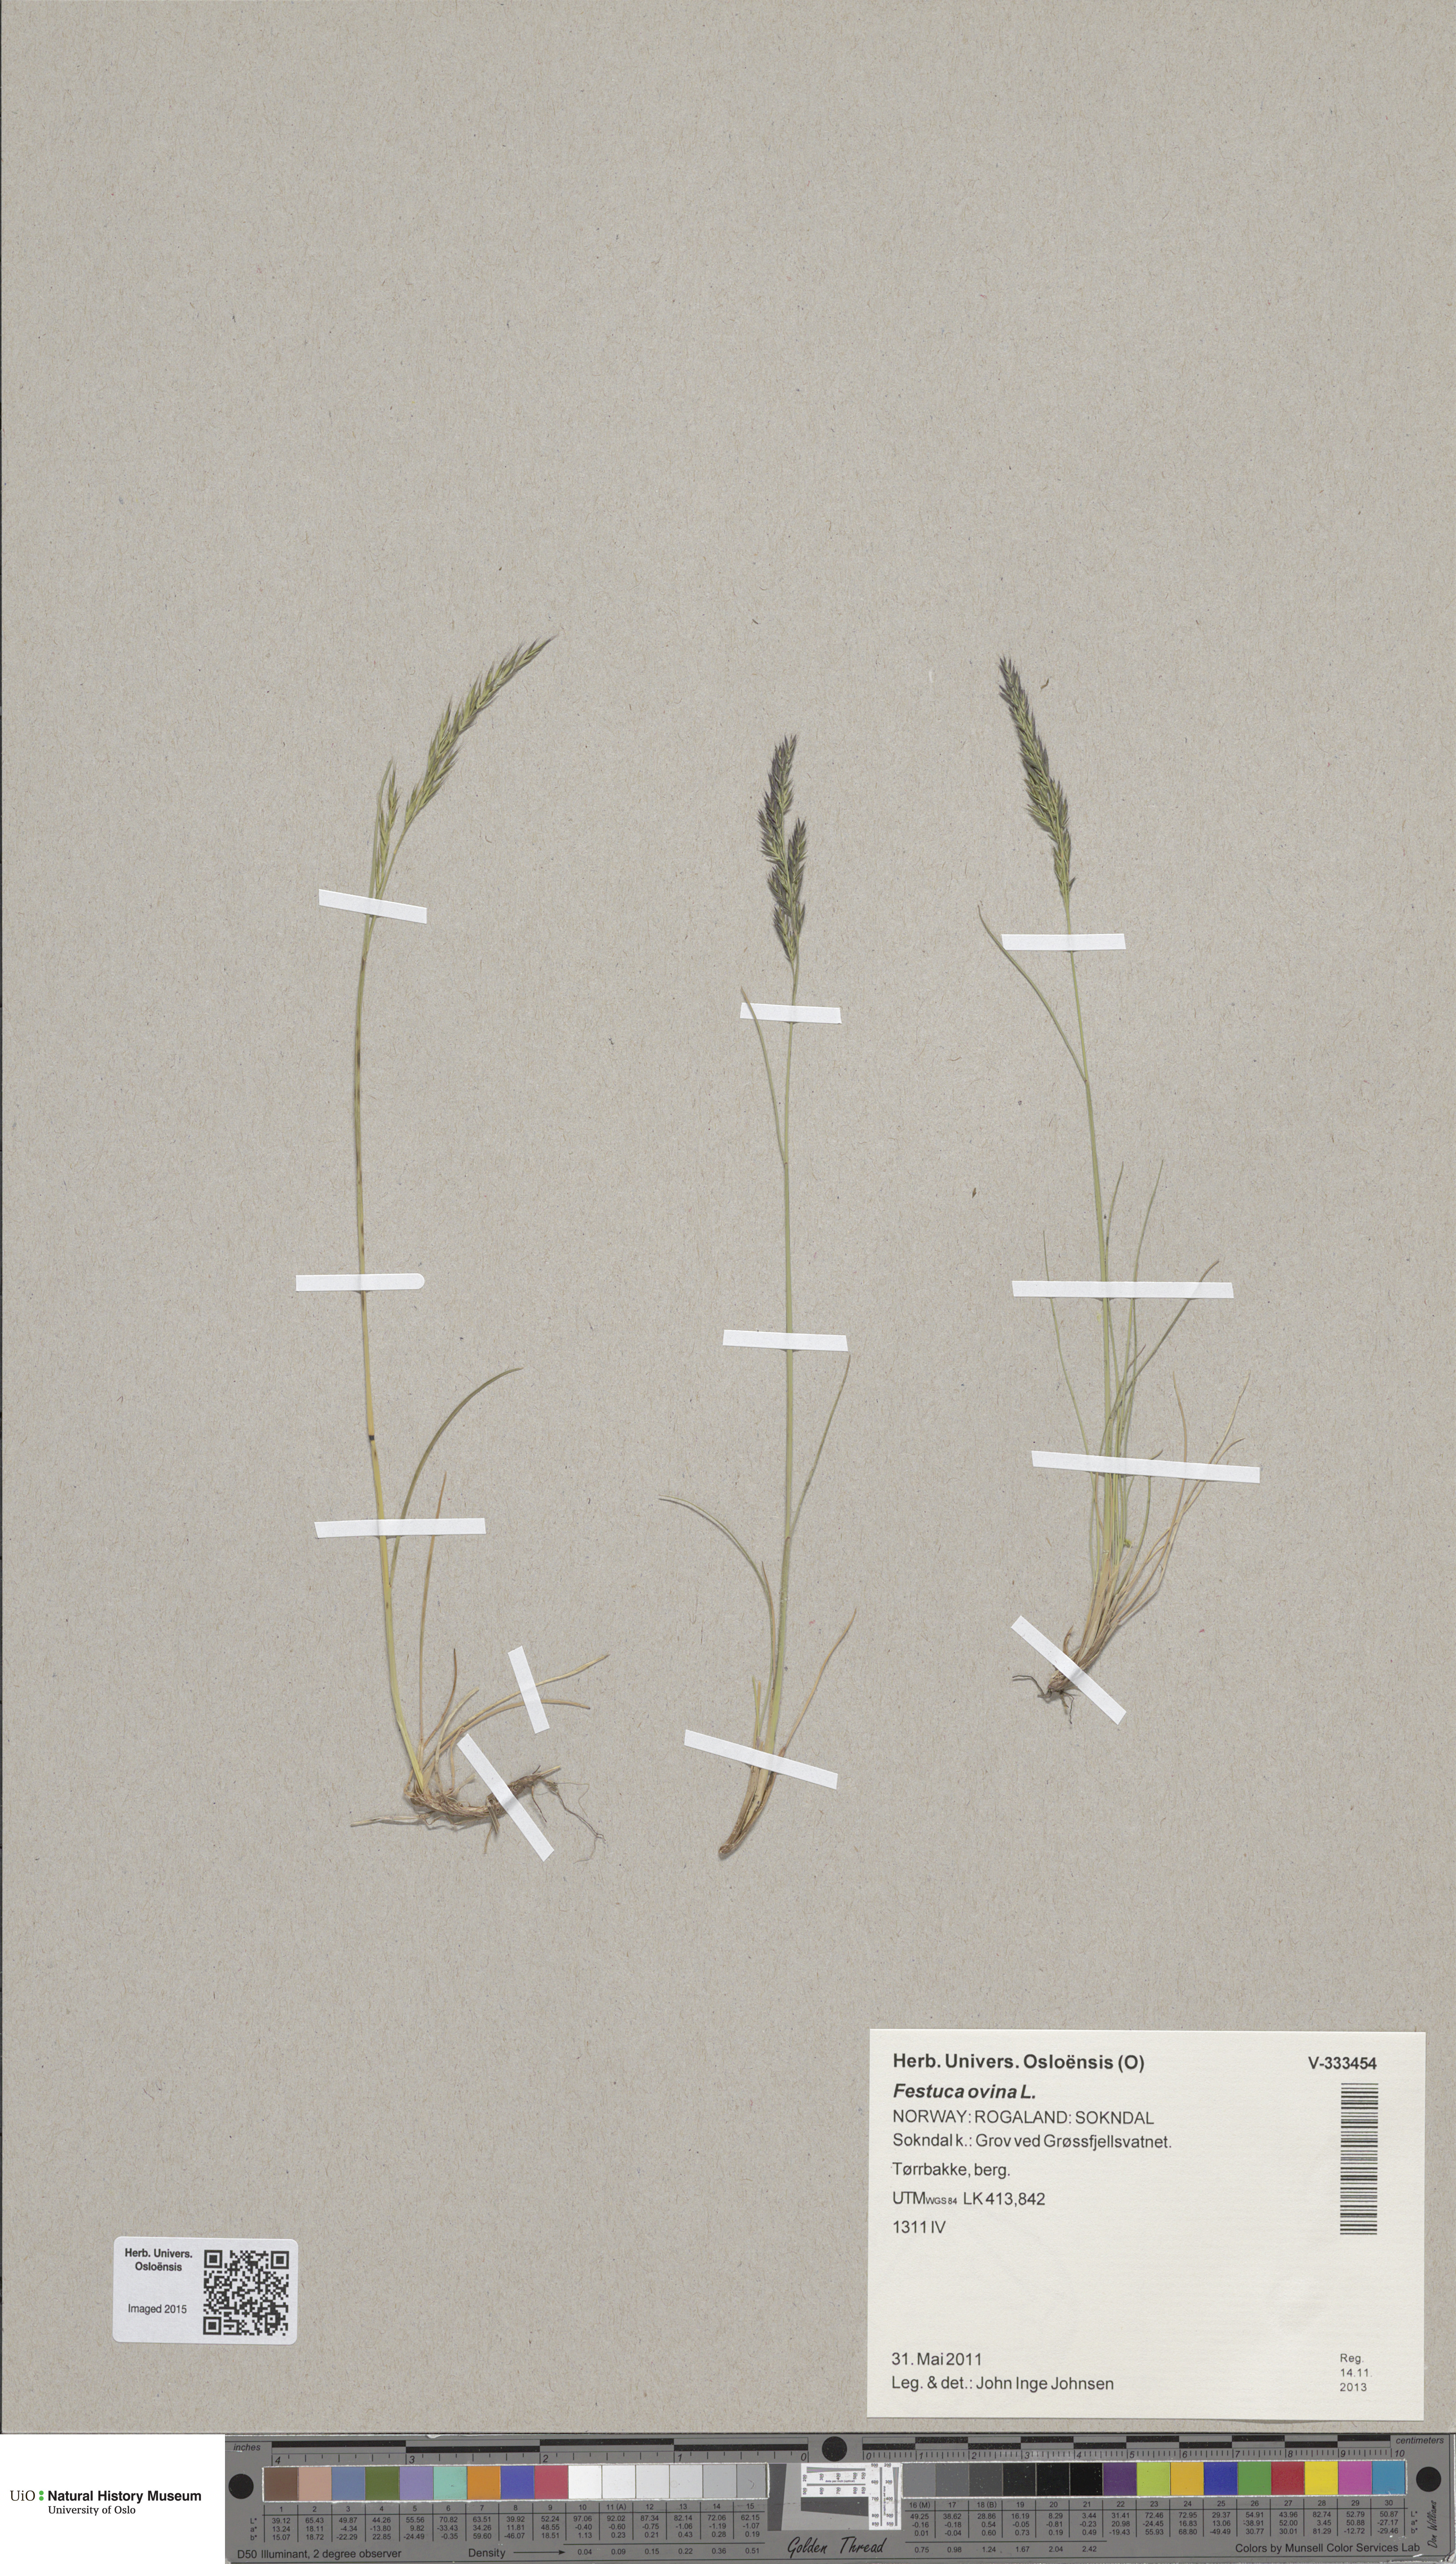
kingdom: Plantae
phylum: Tracheophyta
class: Liliopsida
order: Poales
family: Poaceae
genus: Festuca
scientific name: Festuca ovina
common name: Sheep fescue
